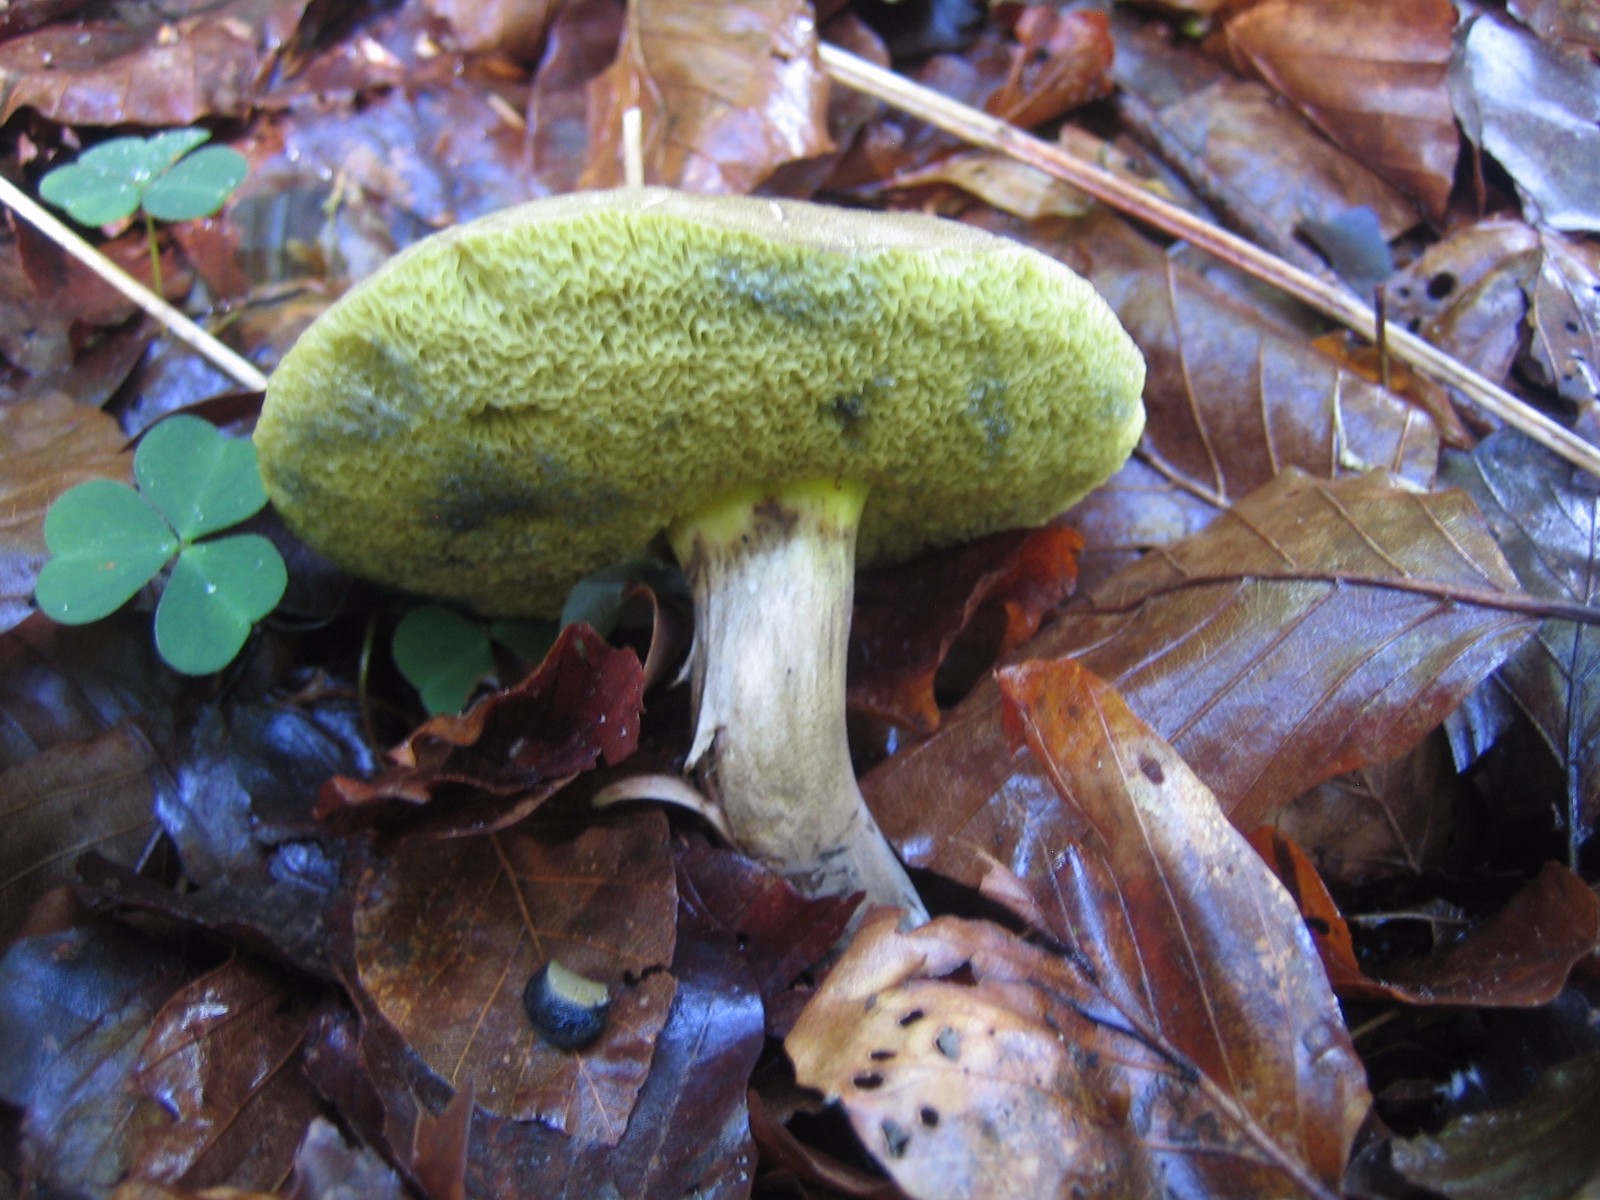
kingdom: Fungi
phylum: Basidiomycota
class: Agaricomycetes
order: Boletales
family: Boletaceae
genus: Xerocomellus
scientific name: Xerocomellus porosporus
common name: hvidsprukken rørhat
